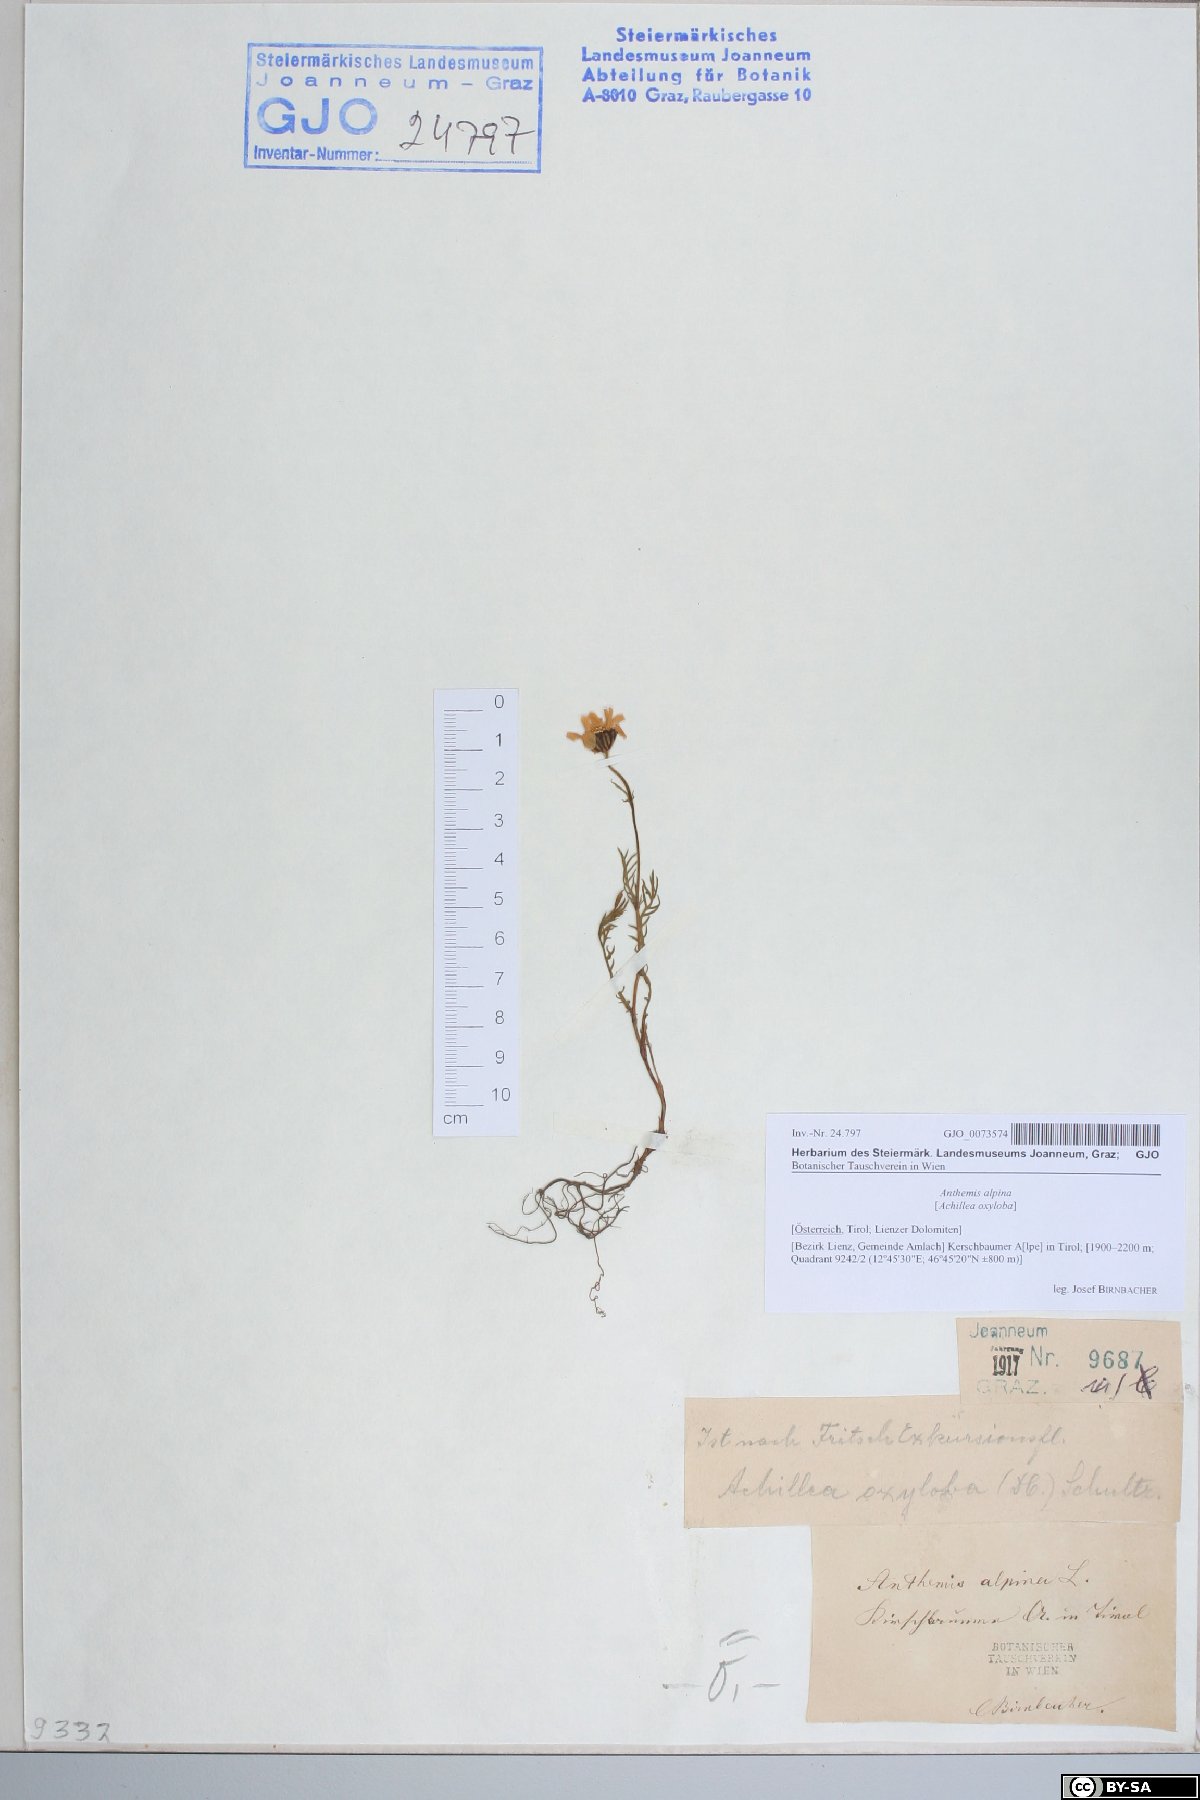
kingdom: Plantae
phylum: Tracheophyta
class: Magnoliopsida
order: Asterales
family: Asteraceae
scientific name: Asteraceae
